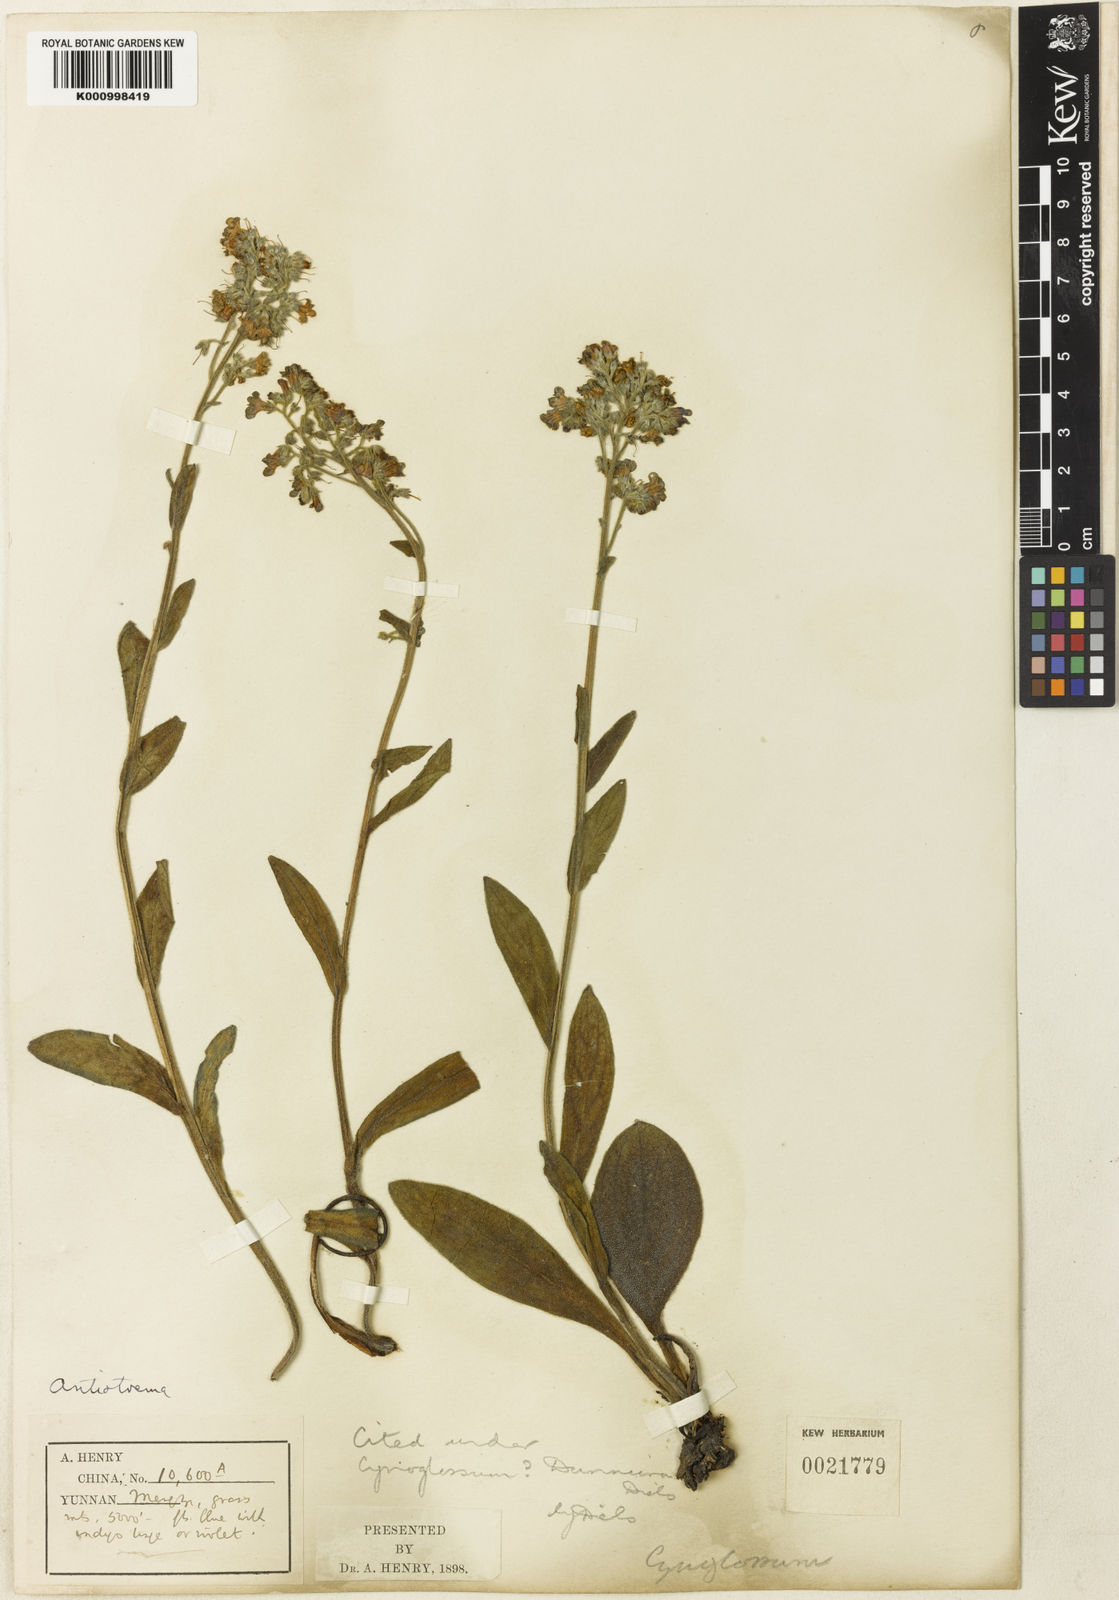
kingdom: Plantae
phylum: Tracheophyta
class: Magnoliopsida
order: Boraginales
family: Boraginaceae
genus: Antiotrema
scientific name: Antiotrema dunnianum
